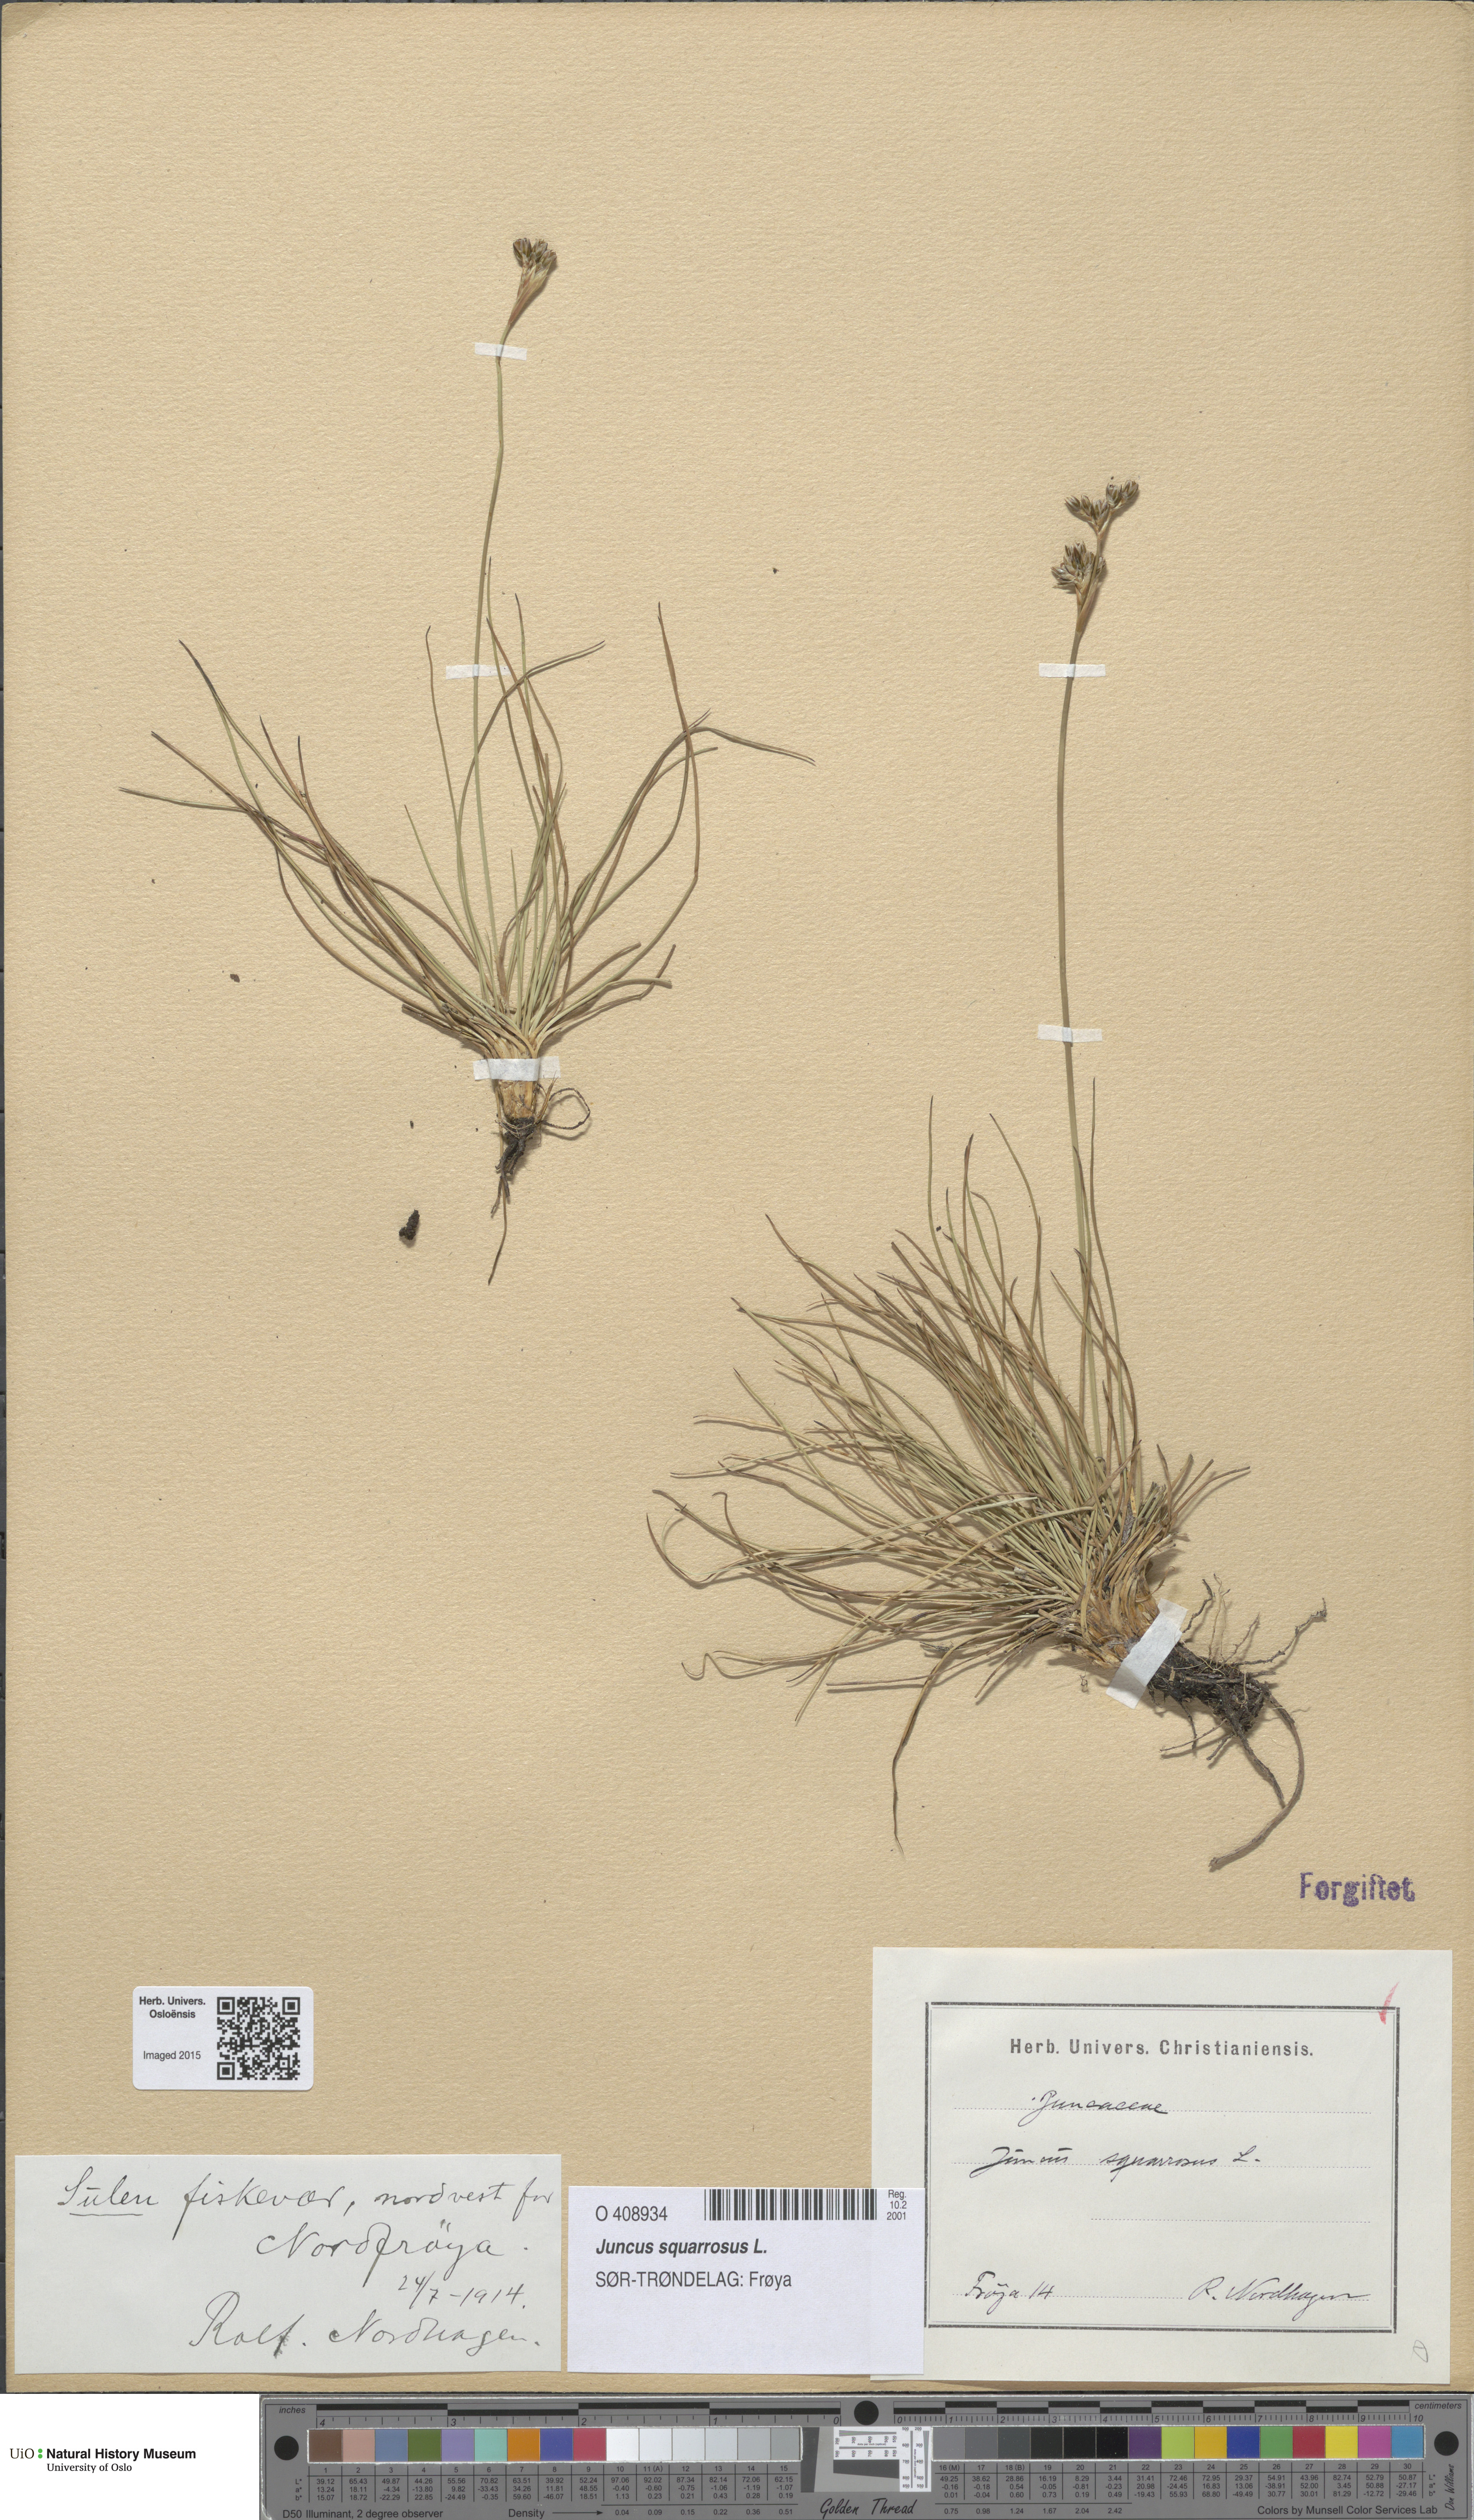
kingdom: Plantae
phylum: Tracheophyta
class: Liliopsida
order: Poales
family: Juncaceae
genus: Juncus
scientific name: Juncus squarrosus
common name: Heath rush
